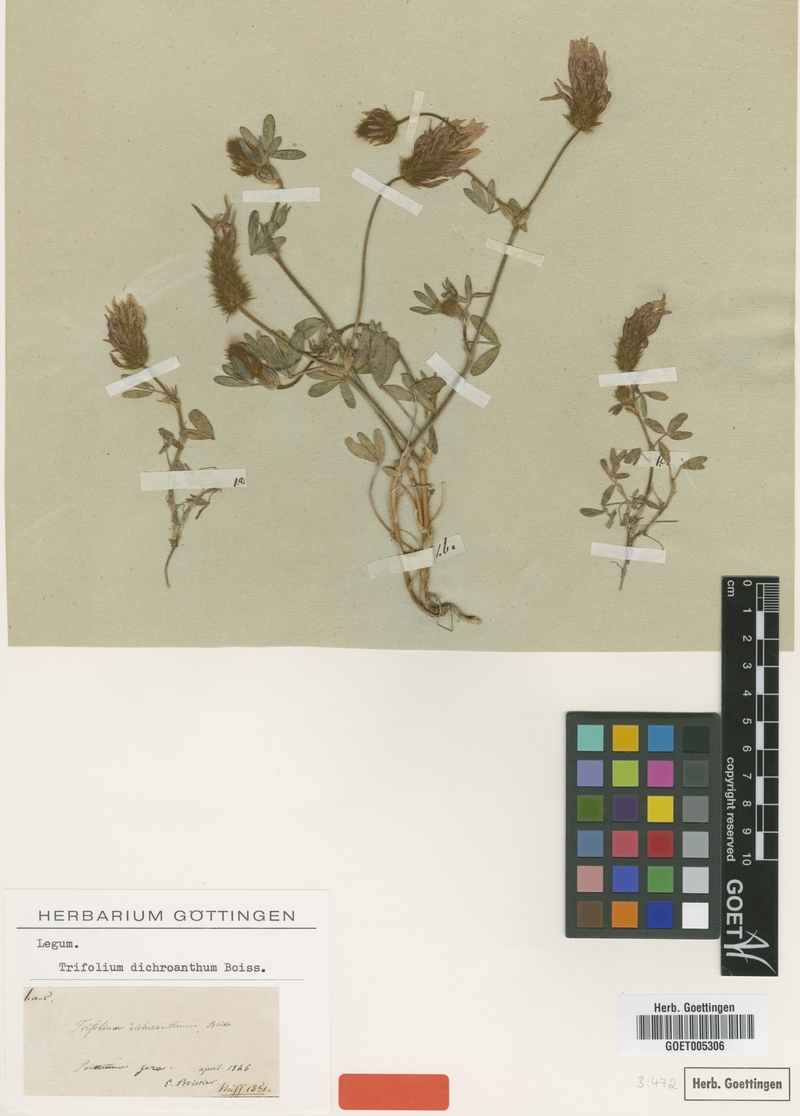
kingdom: Plantae
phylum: Tracheophyta
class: Magnoliopsida
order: Fabales
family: Fabaceae
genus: Trifolium
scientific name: Trifolium dichroanthum
